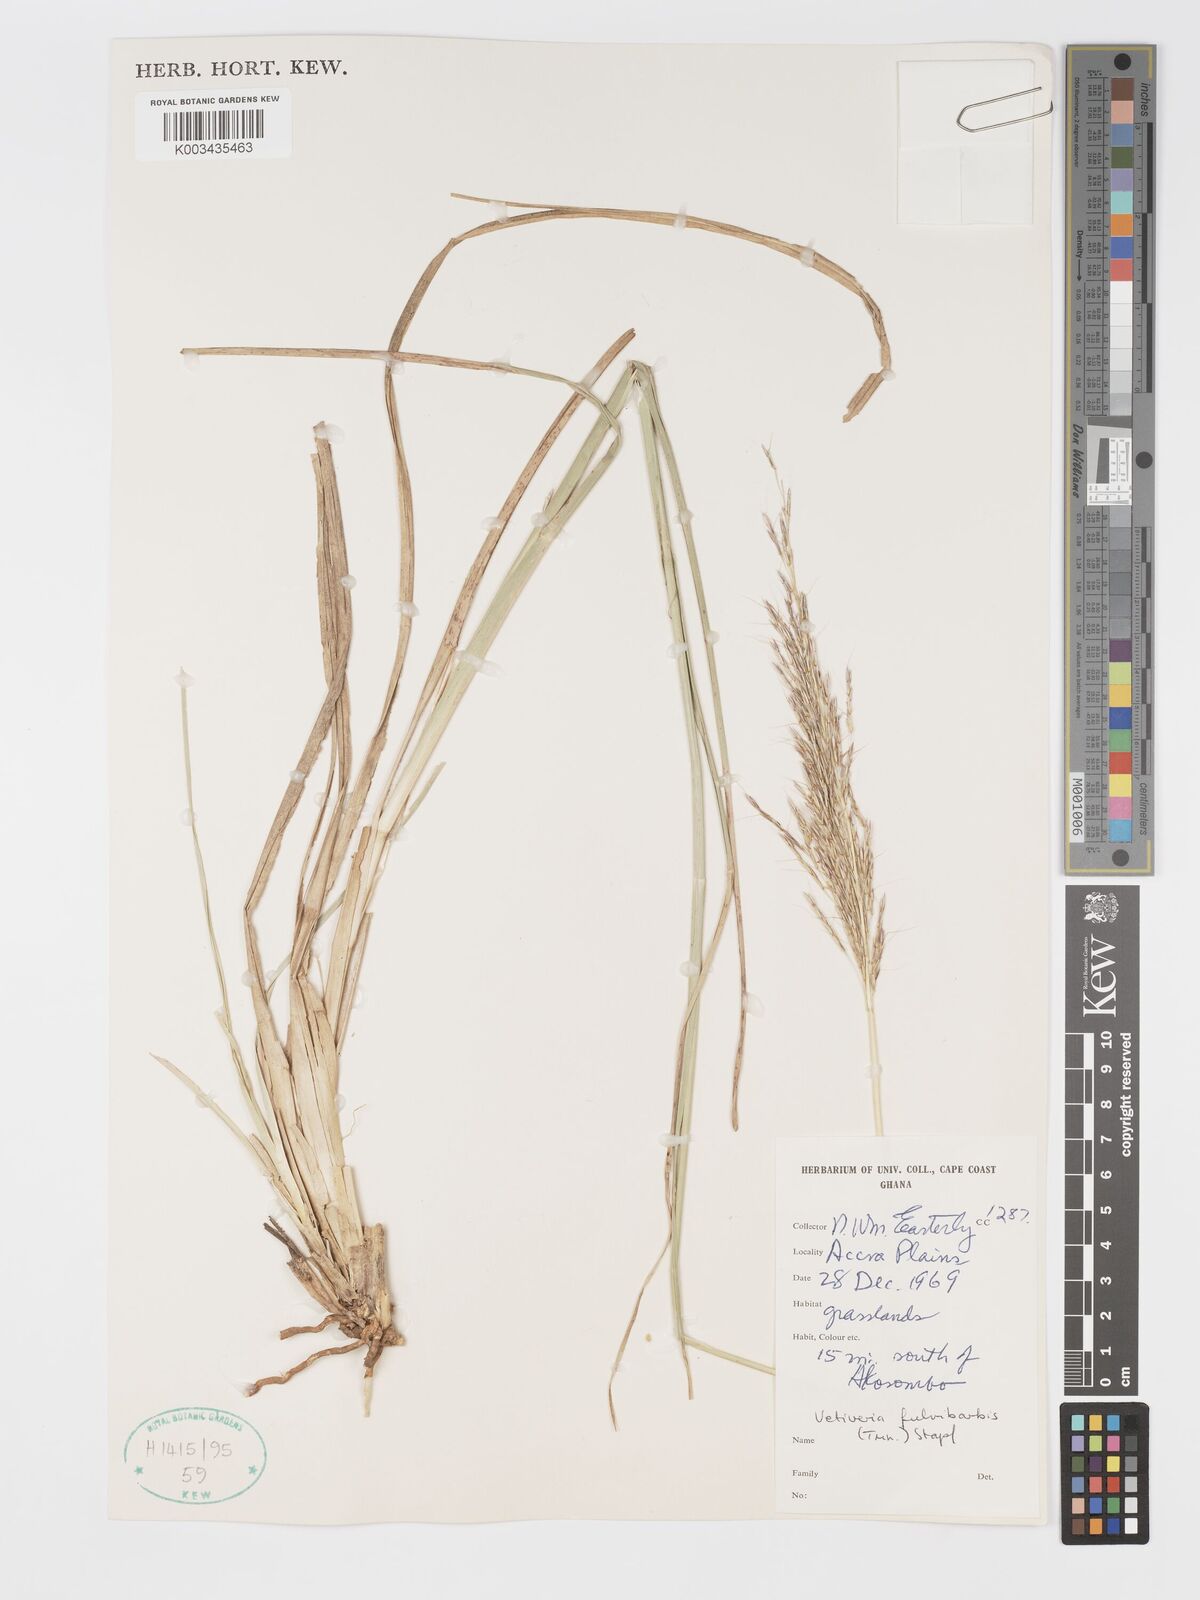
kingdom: Plantae
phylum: Tracheophyta
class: Liliopsida
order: Poales
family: Poaceae
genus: Chrysopogon
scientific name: Chrysopogon fulvibarbis
